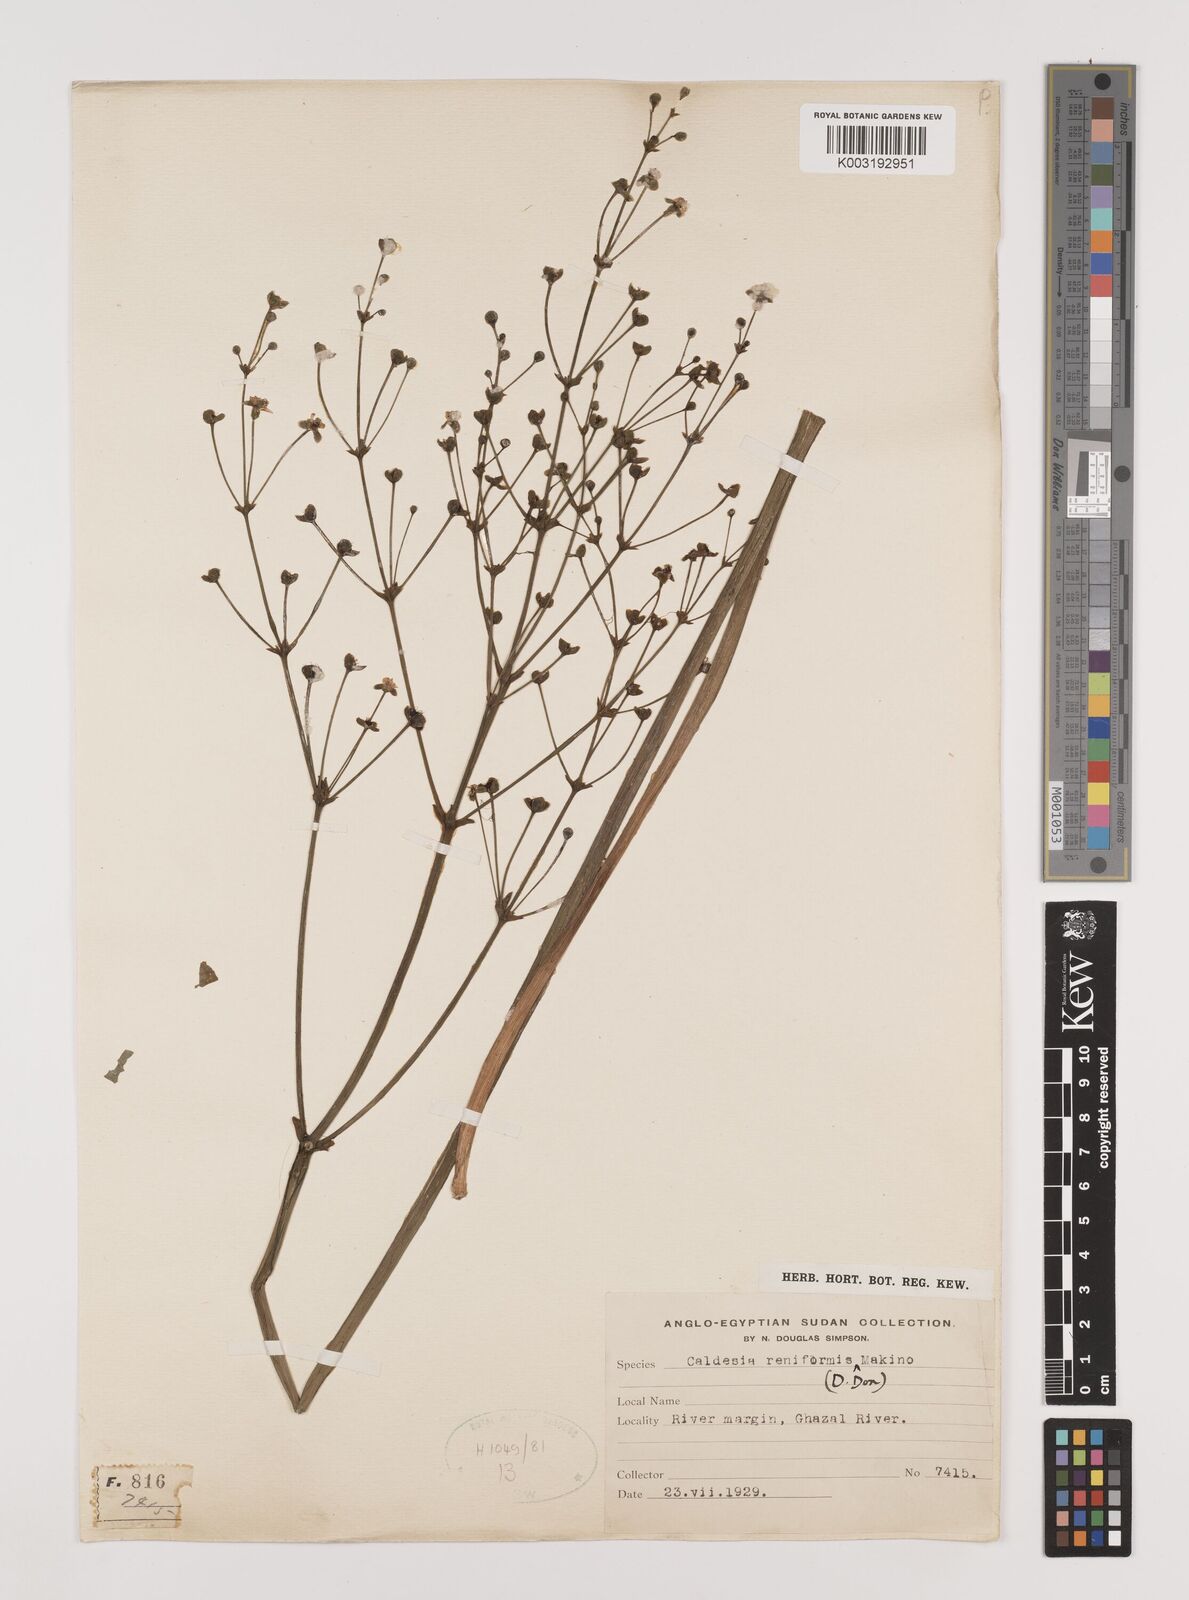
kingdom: Plantae
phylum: Tracheophyta
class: Liliopsida
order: Alismatales
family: Alismataceae
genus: Caldesia
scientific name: Caldesia parnassifolia
